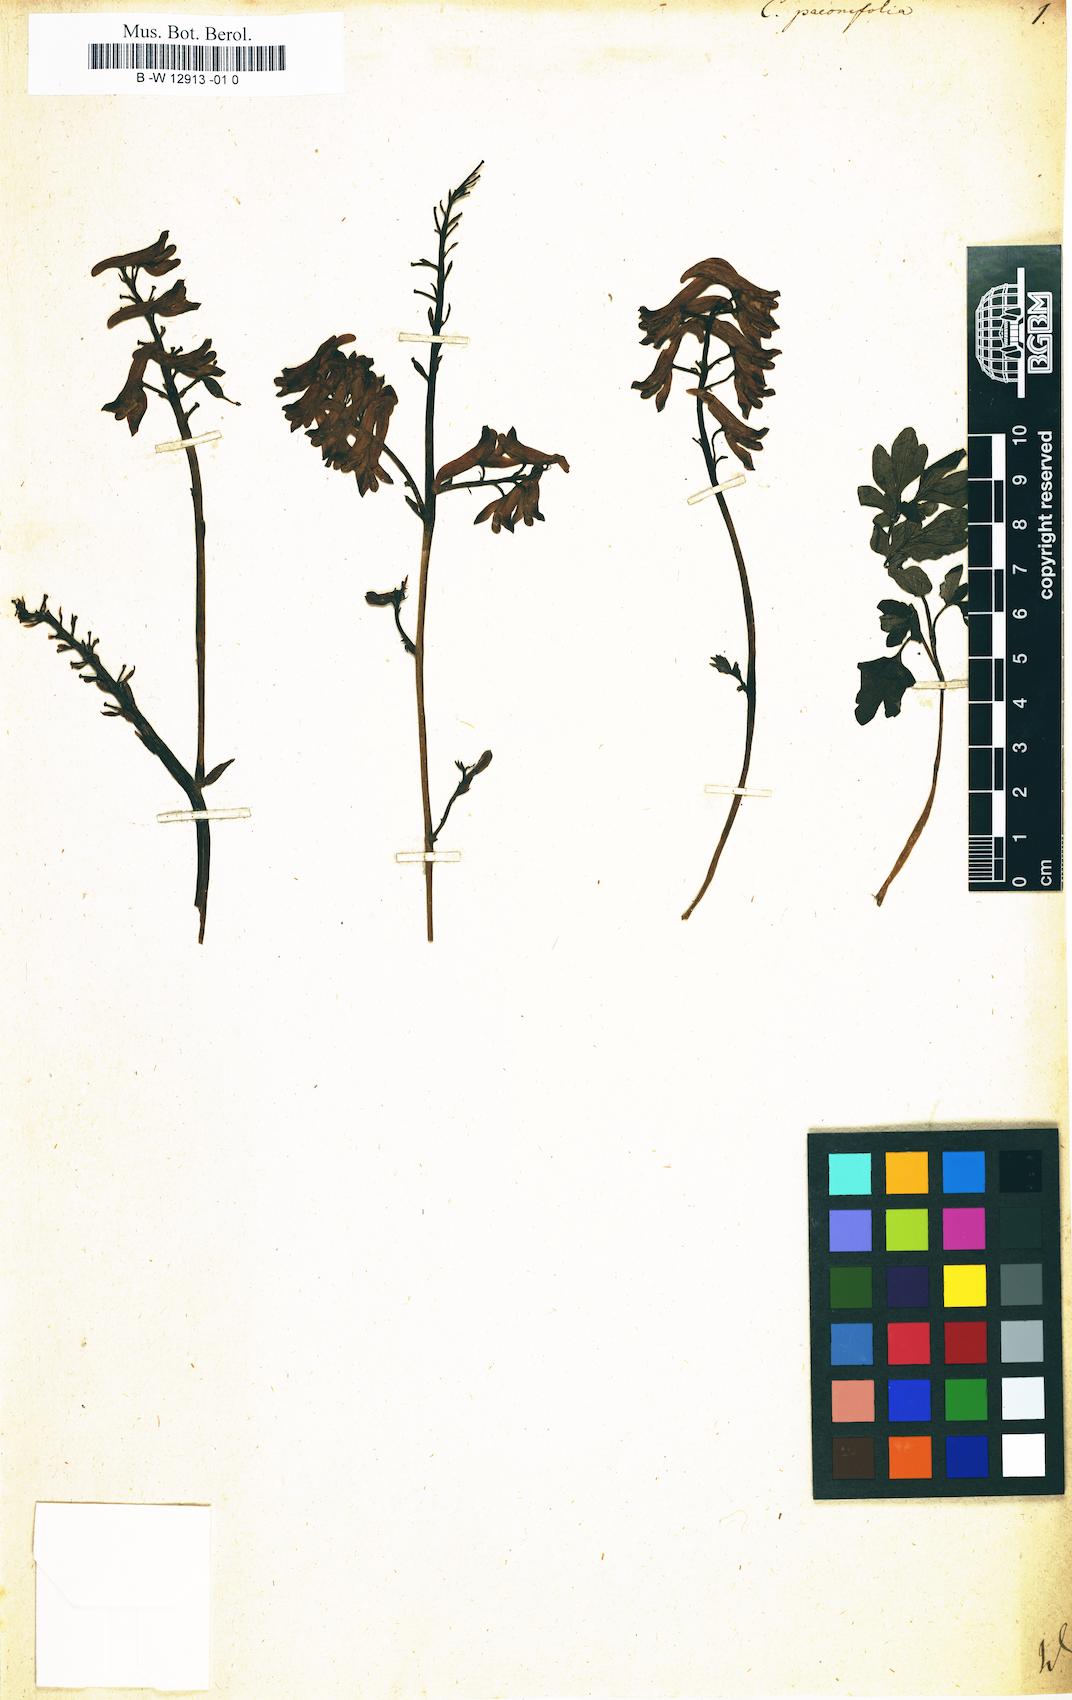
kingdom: Plantae
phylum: Tracheophyta
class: Magnoliopsida
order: Ranunculales
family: Papaveraceae
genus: Corydalis
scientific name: Corydalis paeoniifolia
